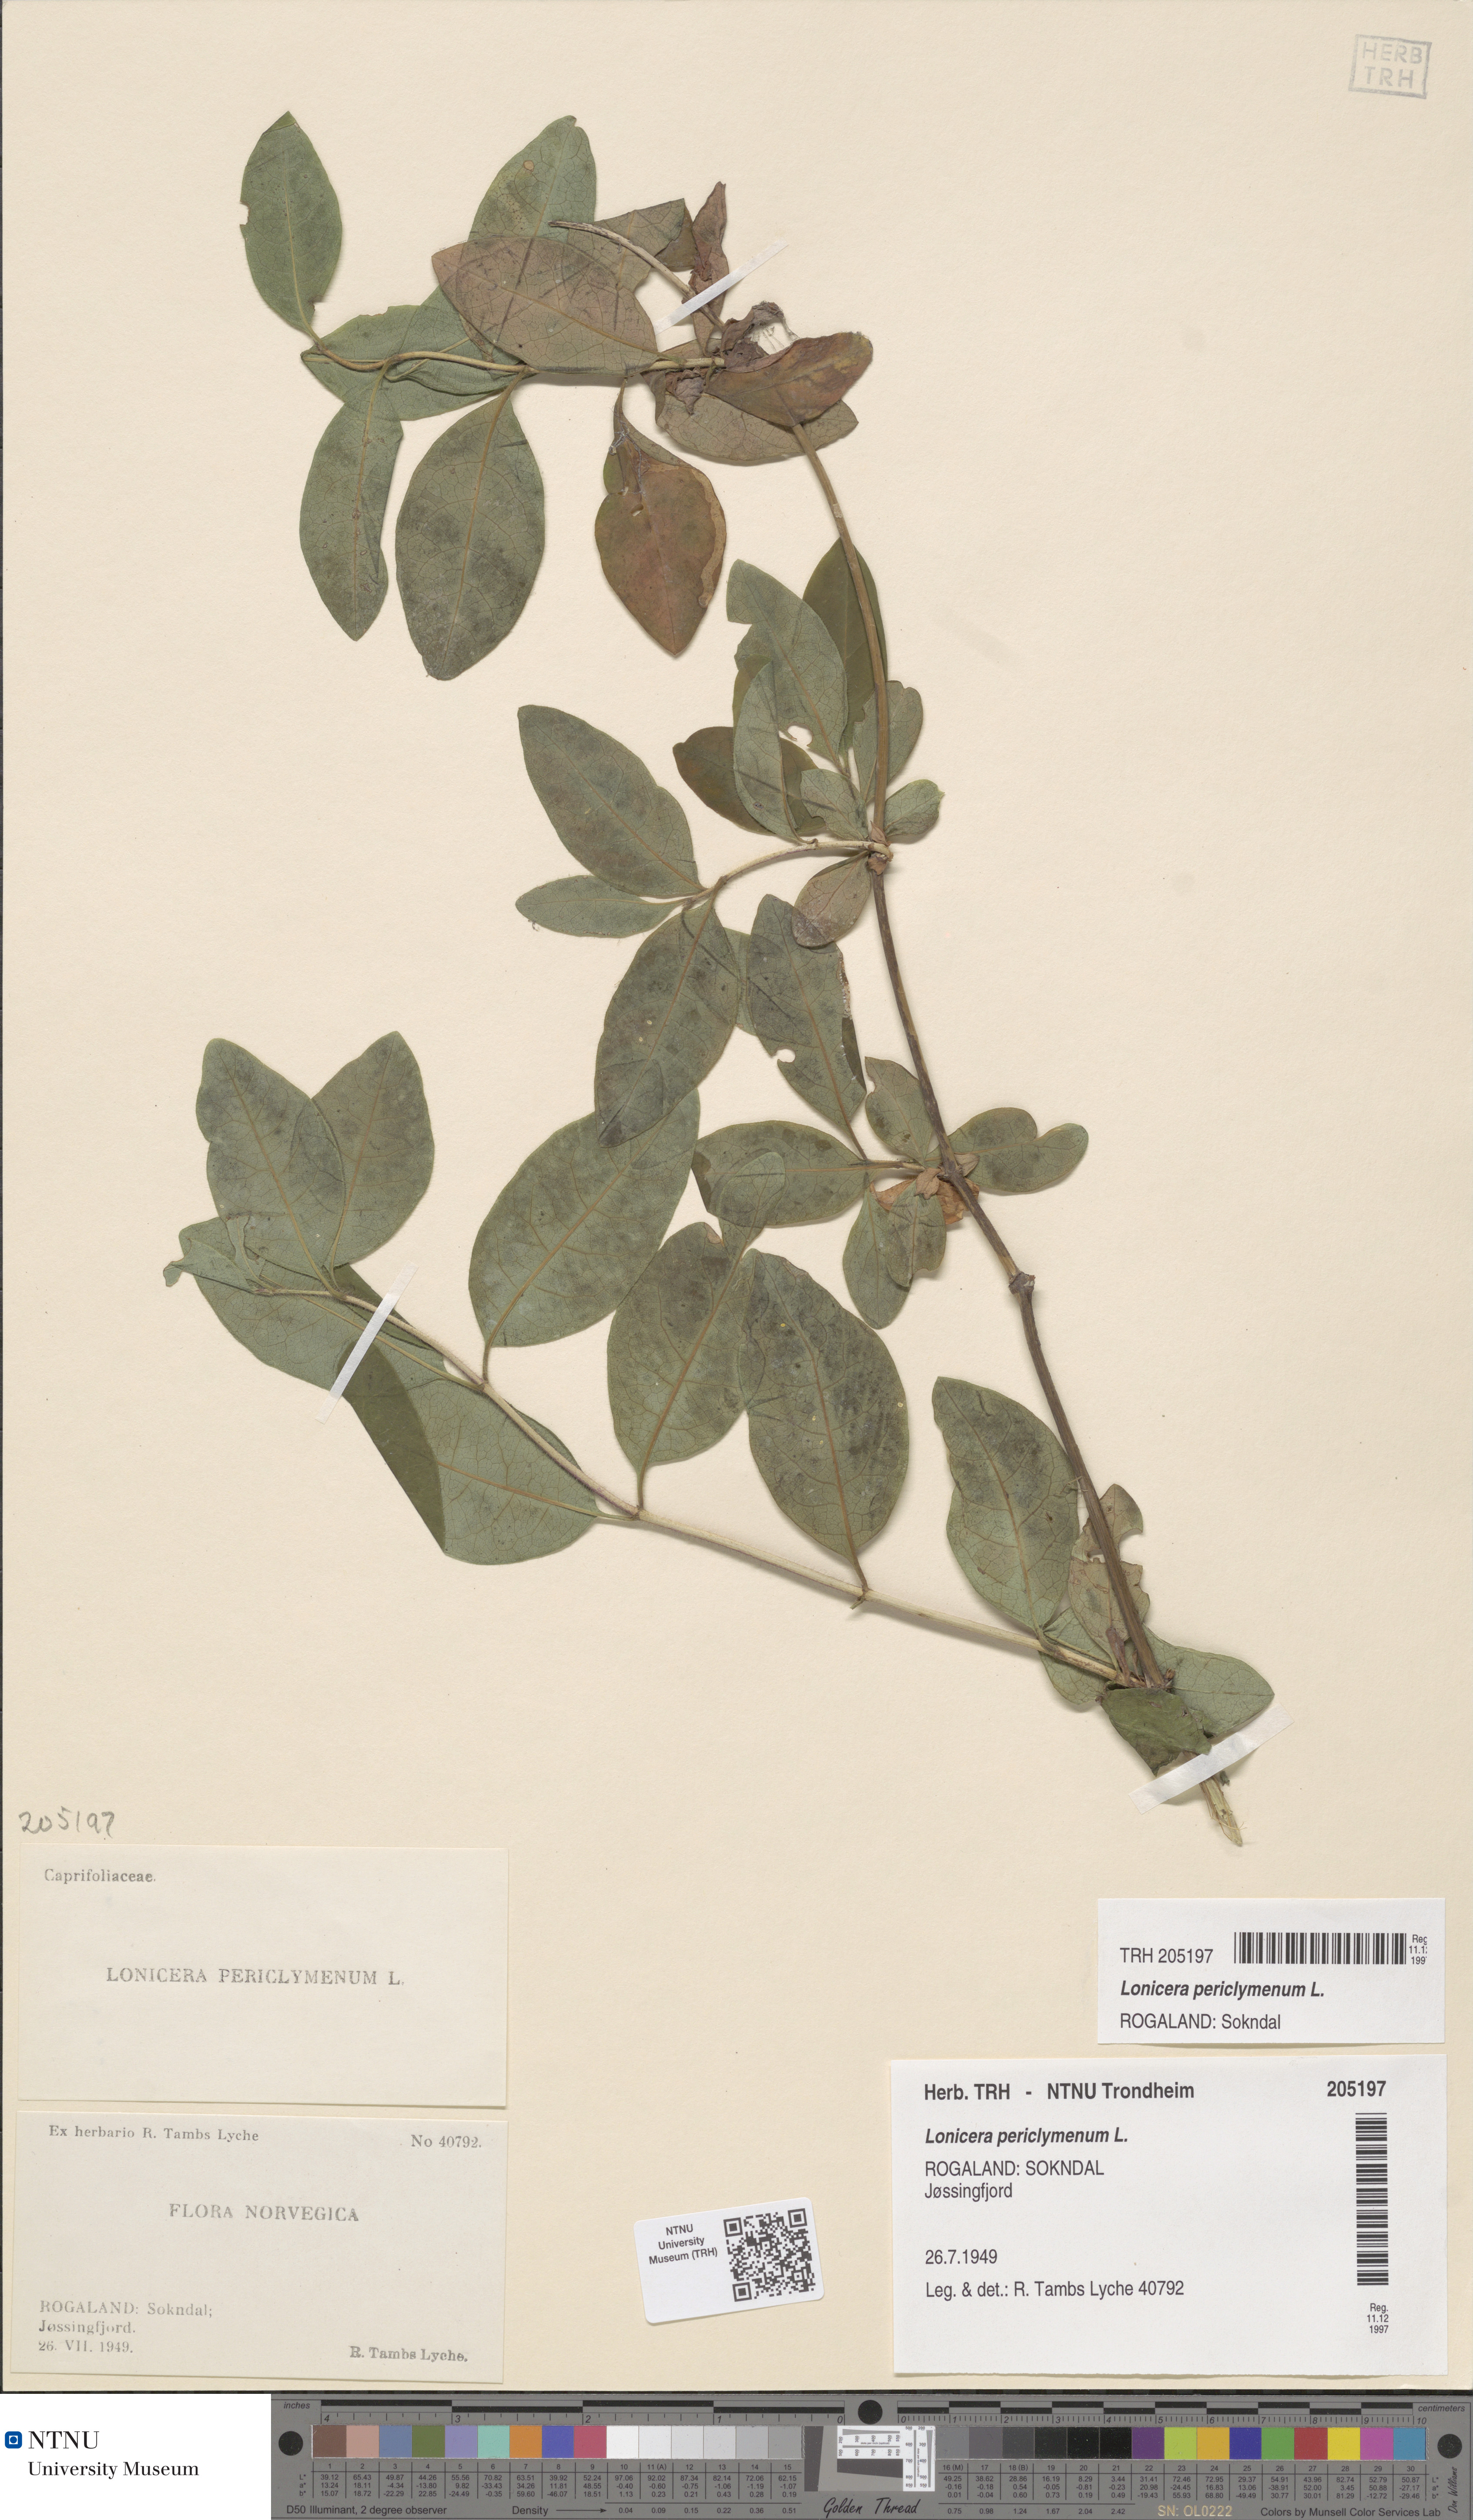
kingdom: Plantae
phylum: Tracheophyta
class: Magnoliopsida
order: Dipsacales
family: Caprifoliaceae
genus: Lonicera
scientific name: Lonicera periclymenum
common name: European honeysuckle
